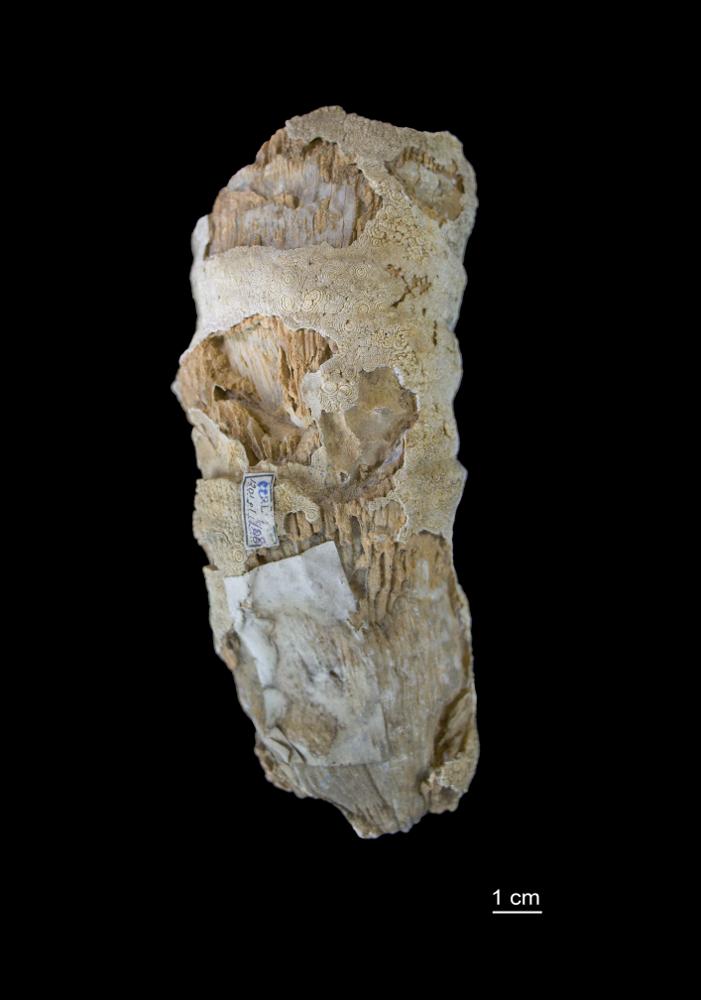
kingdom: Animalia
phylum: Cnidaria
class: Anthozoa
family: Streptelasmatidae
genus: Grewingkia
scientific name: Grewingkia Streptelasma europaeum
